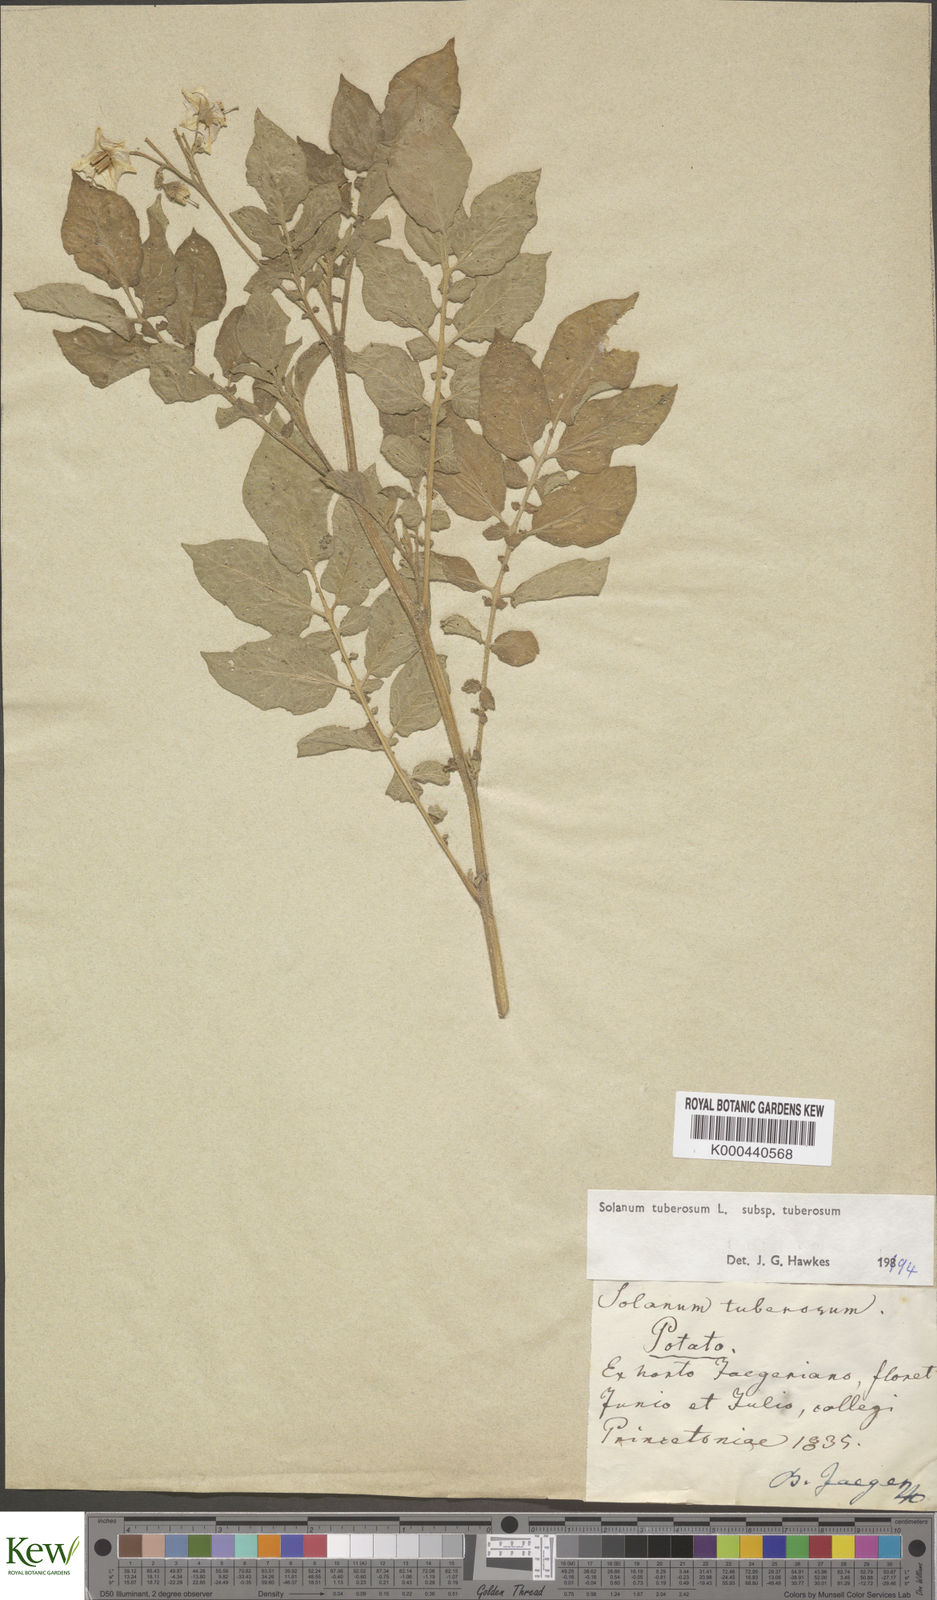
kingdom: Plantae
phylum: Tracheophyta
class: Magnoliopsida
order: Solanales
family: Solanaceae
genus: Solanum
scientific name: Solanum tuberosum
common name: Potato
